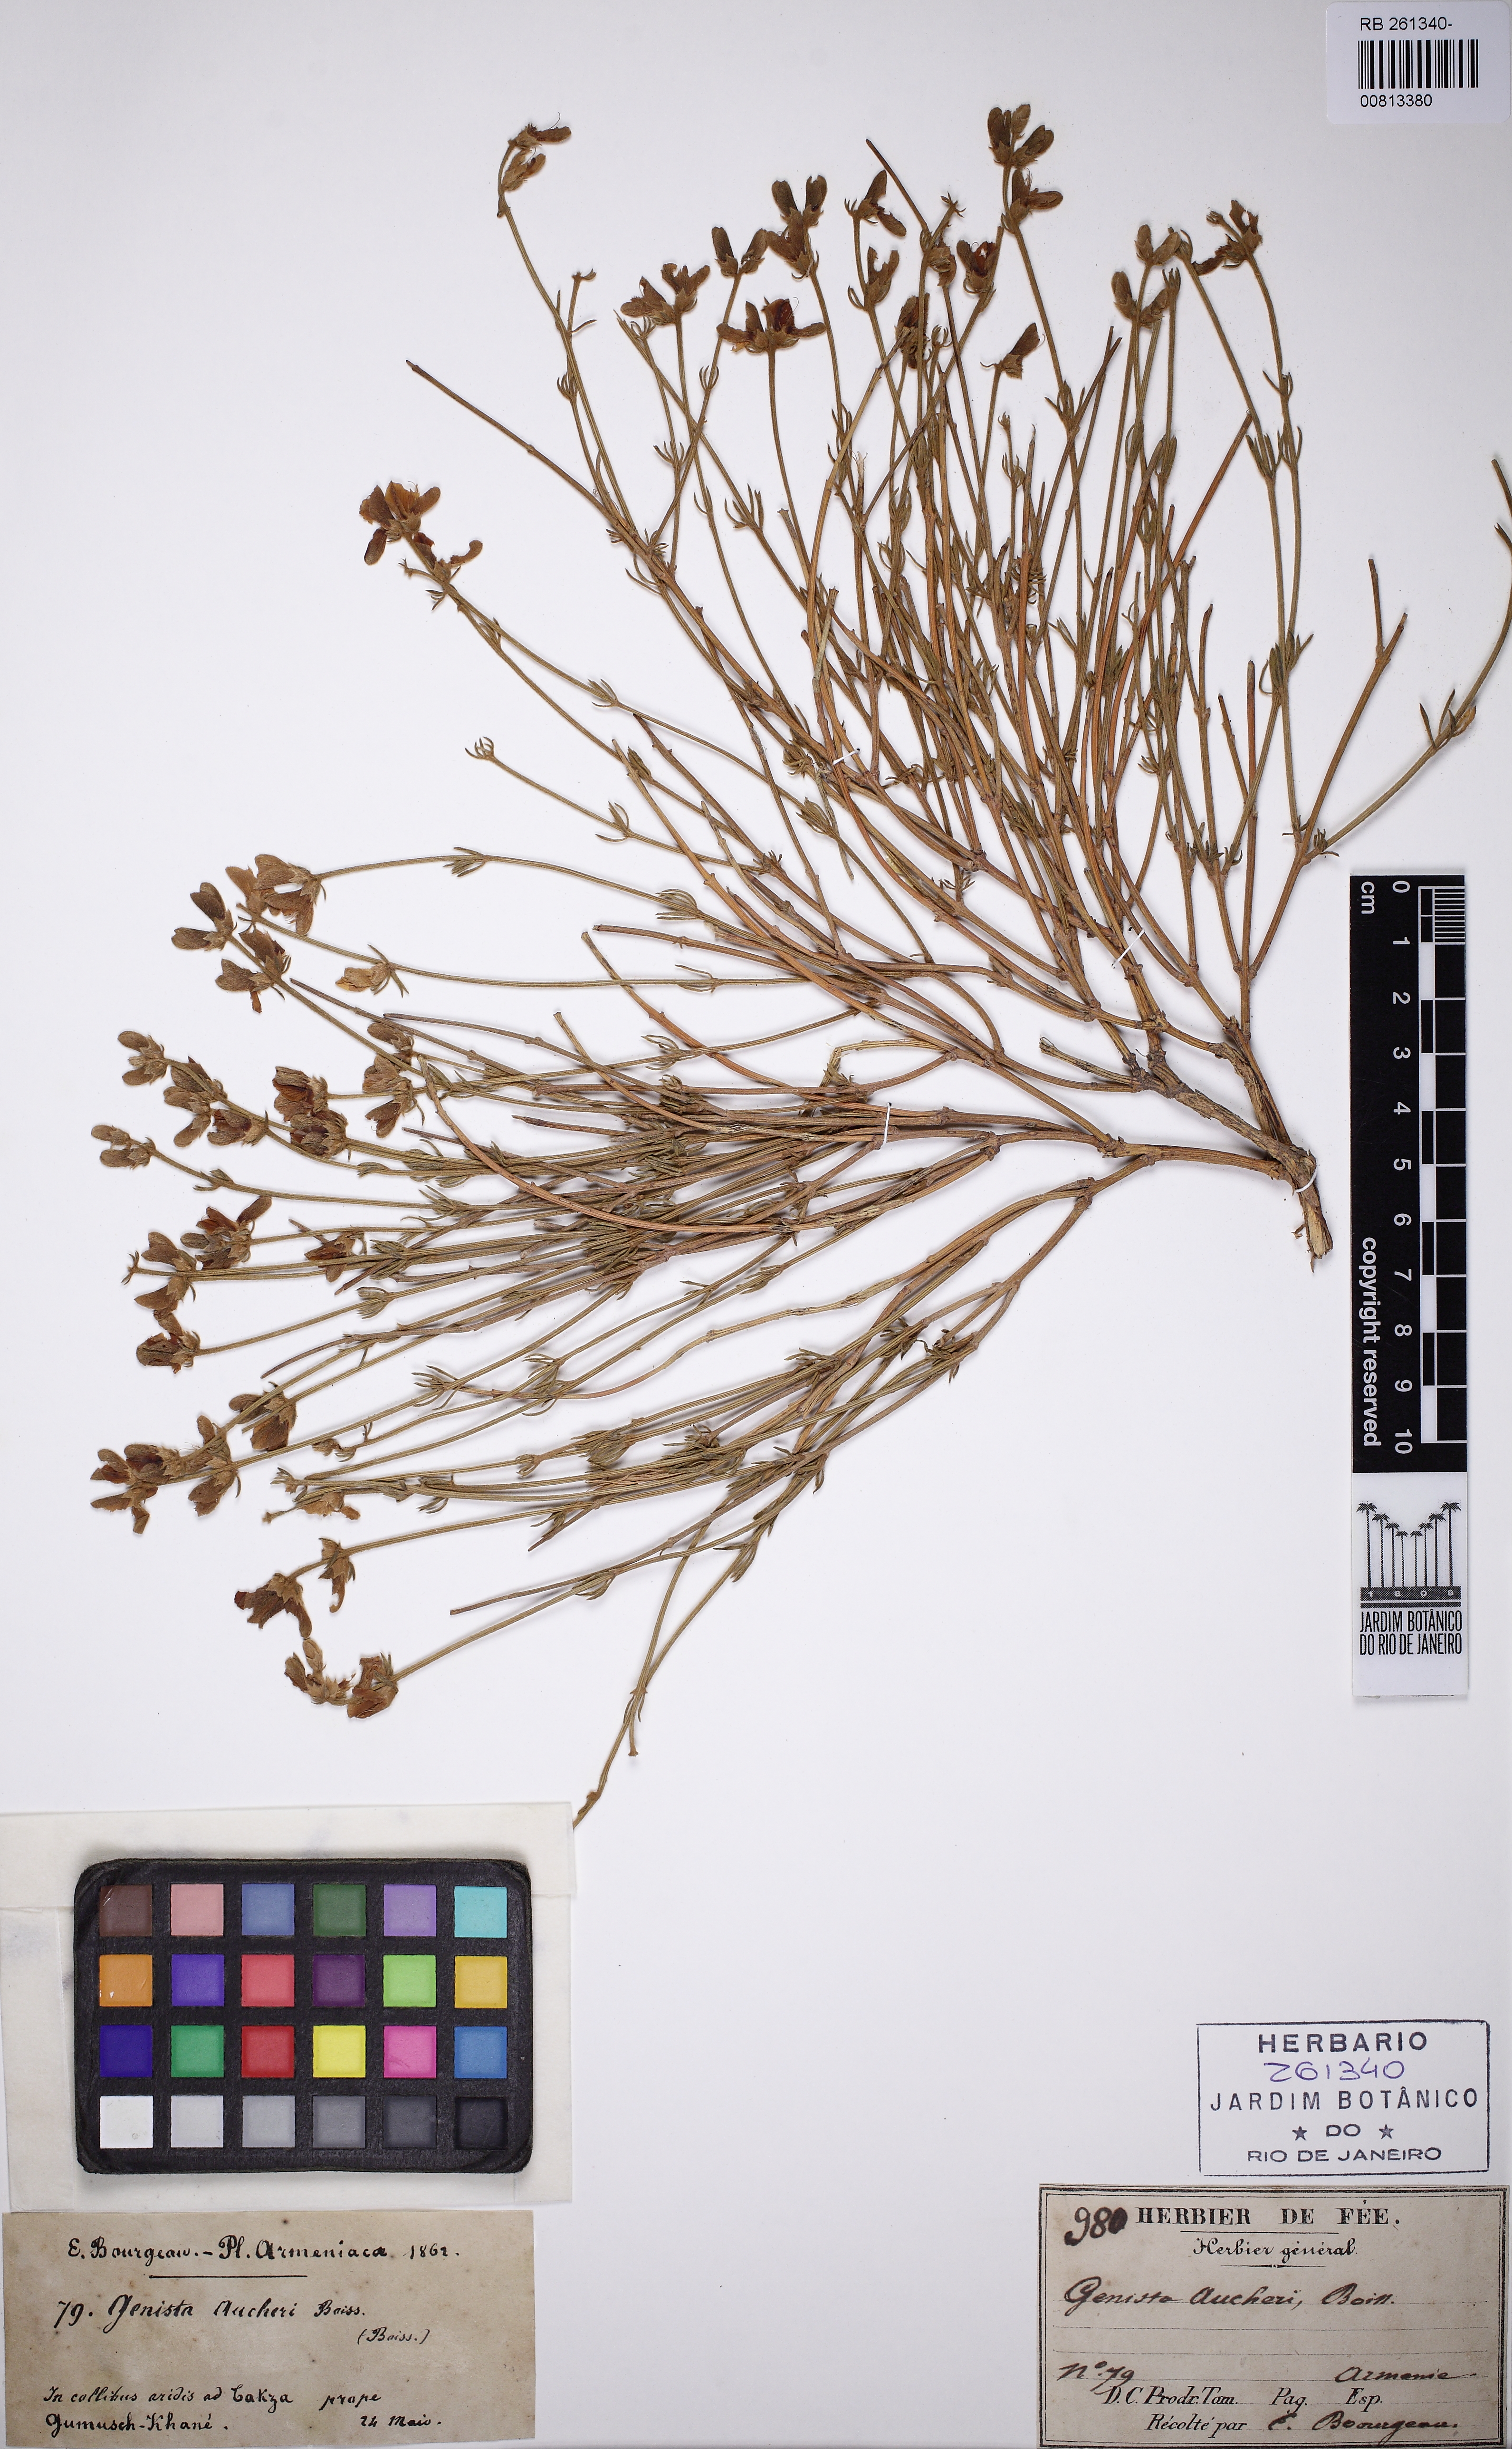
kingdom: Plantae
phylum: Tracheophyta
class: Magnoliopsida
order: Fabales
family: Fabaceae
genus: Genista
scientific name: Genista aucheri
